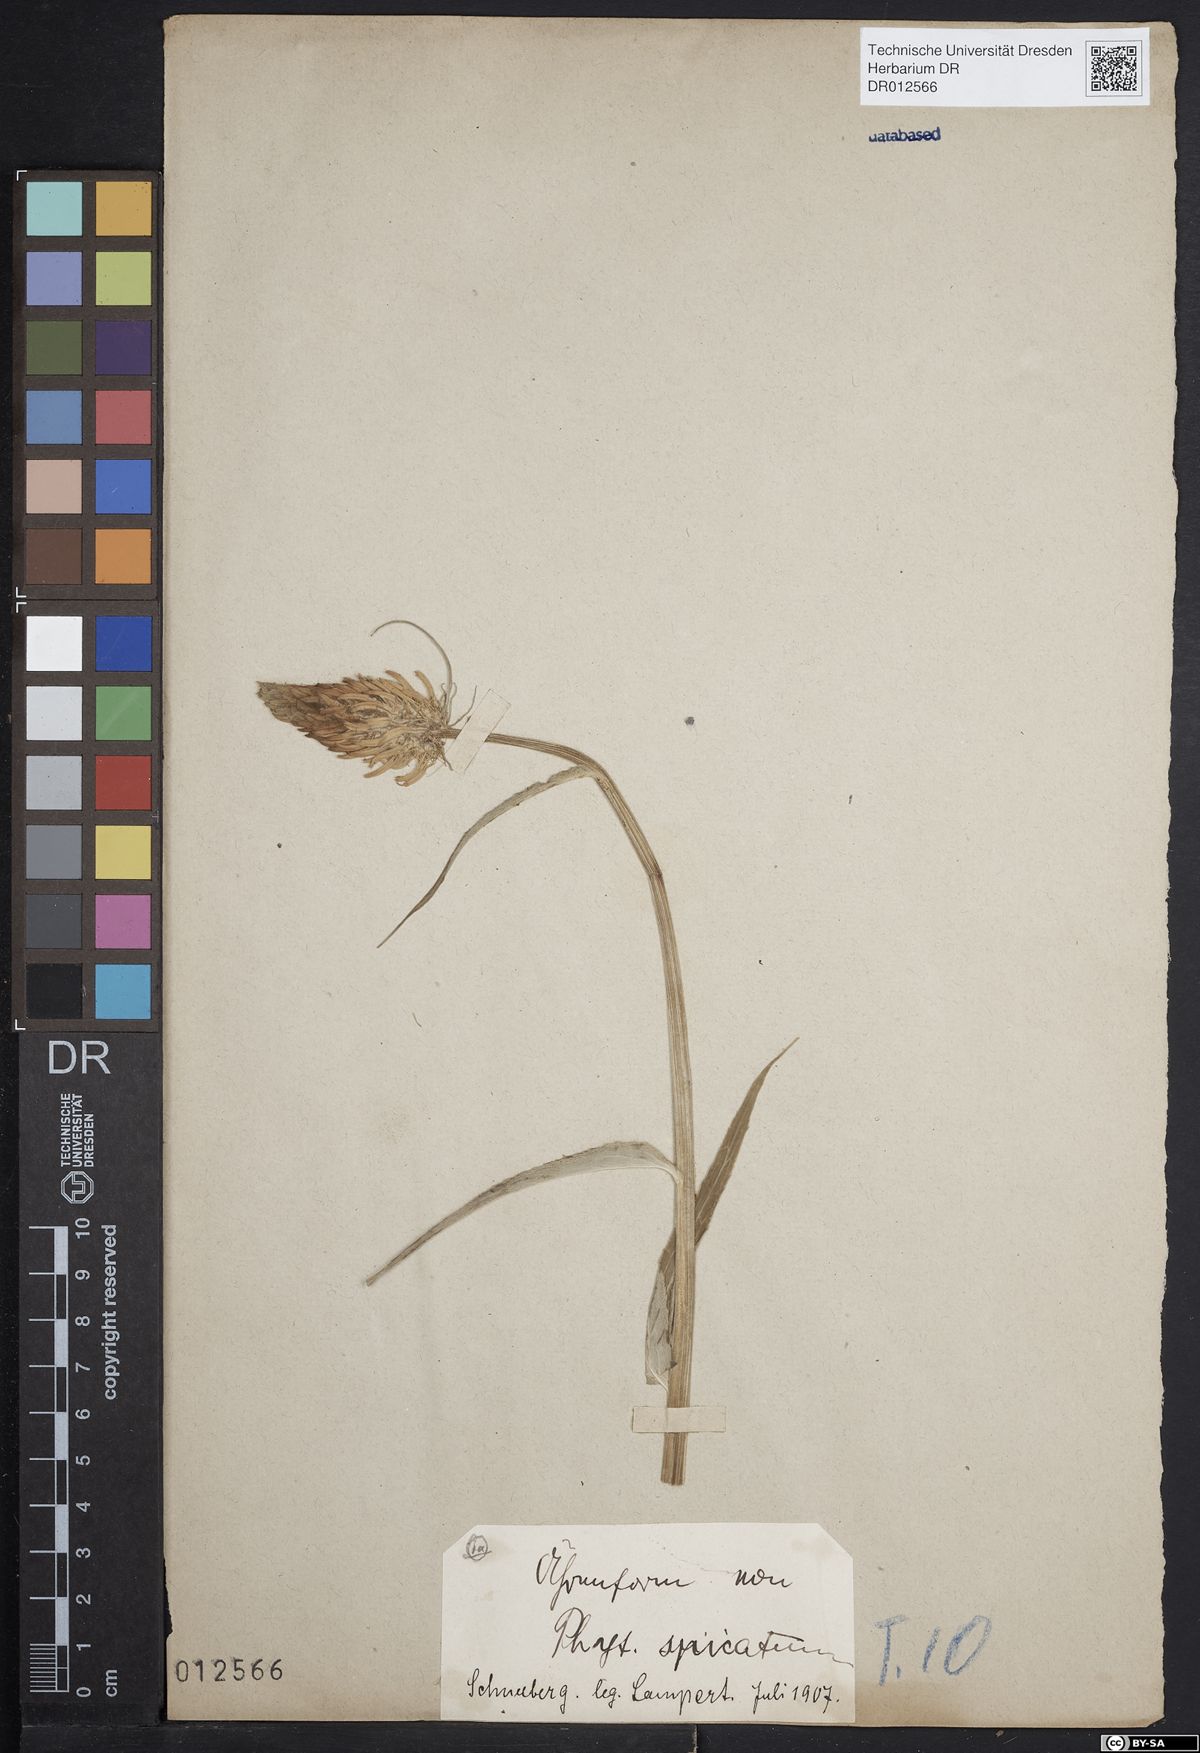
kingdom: Plantae
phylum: Tracheophyta
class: Magnoliopsida
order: Asterales
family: Campanulaceae
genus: Phyteuma
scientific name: Phyteuma spicatum
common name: Spiked rampion
